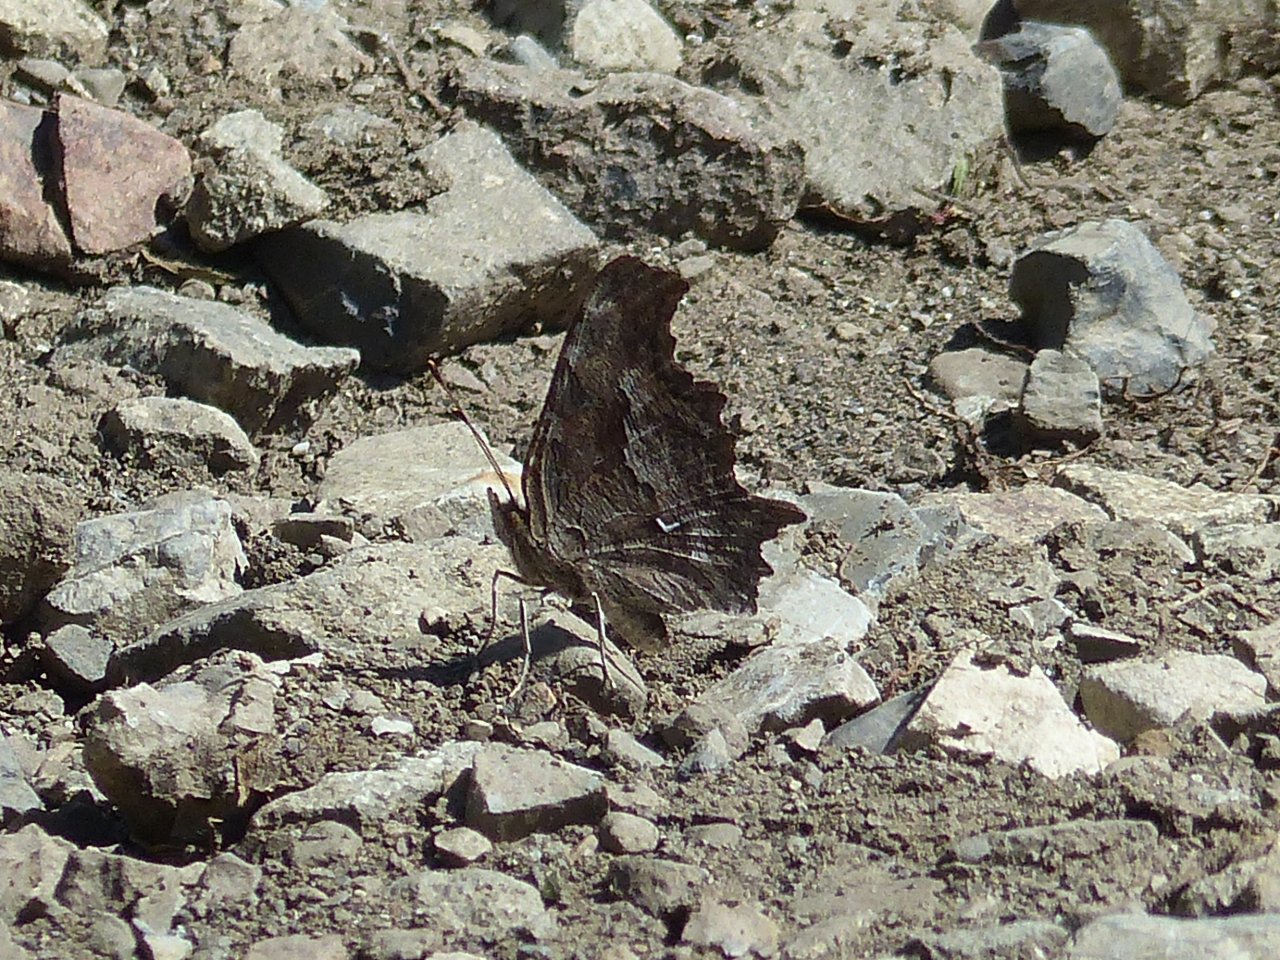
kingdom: Animalia
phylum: Arthropoda
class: Insecta
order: Lepidoptera
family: Nymphalidae
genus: Polygonia
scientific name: Polygonia
